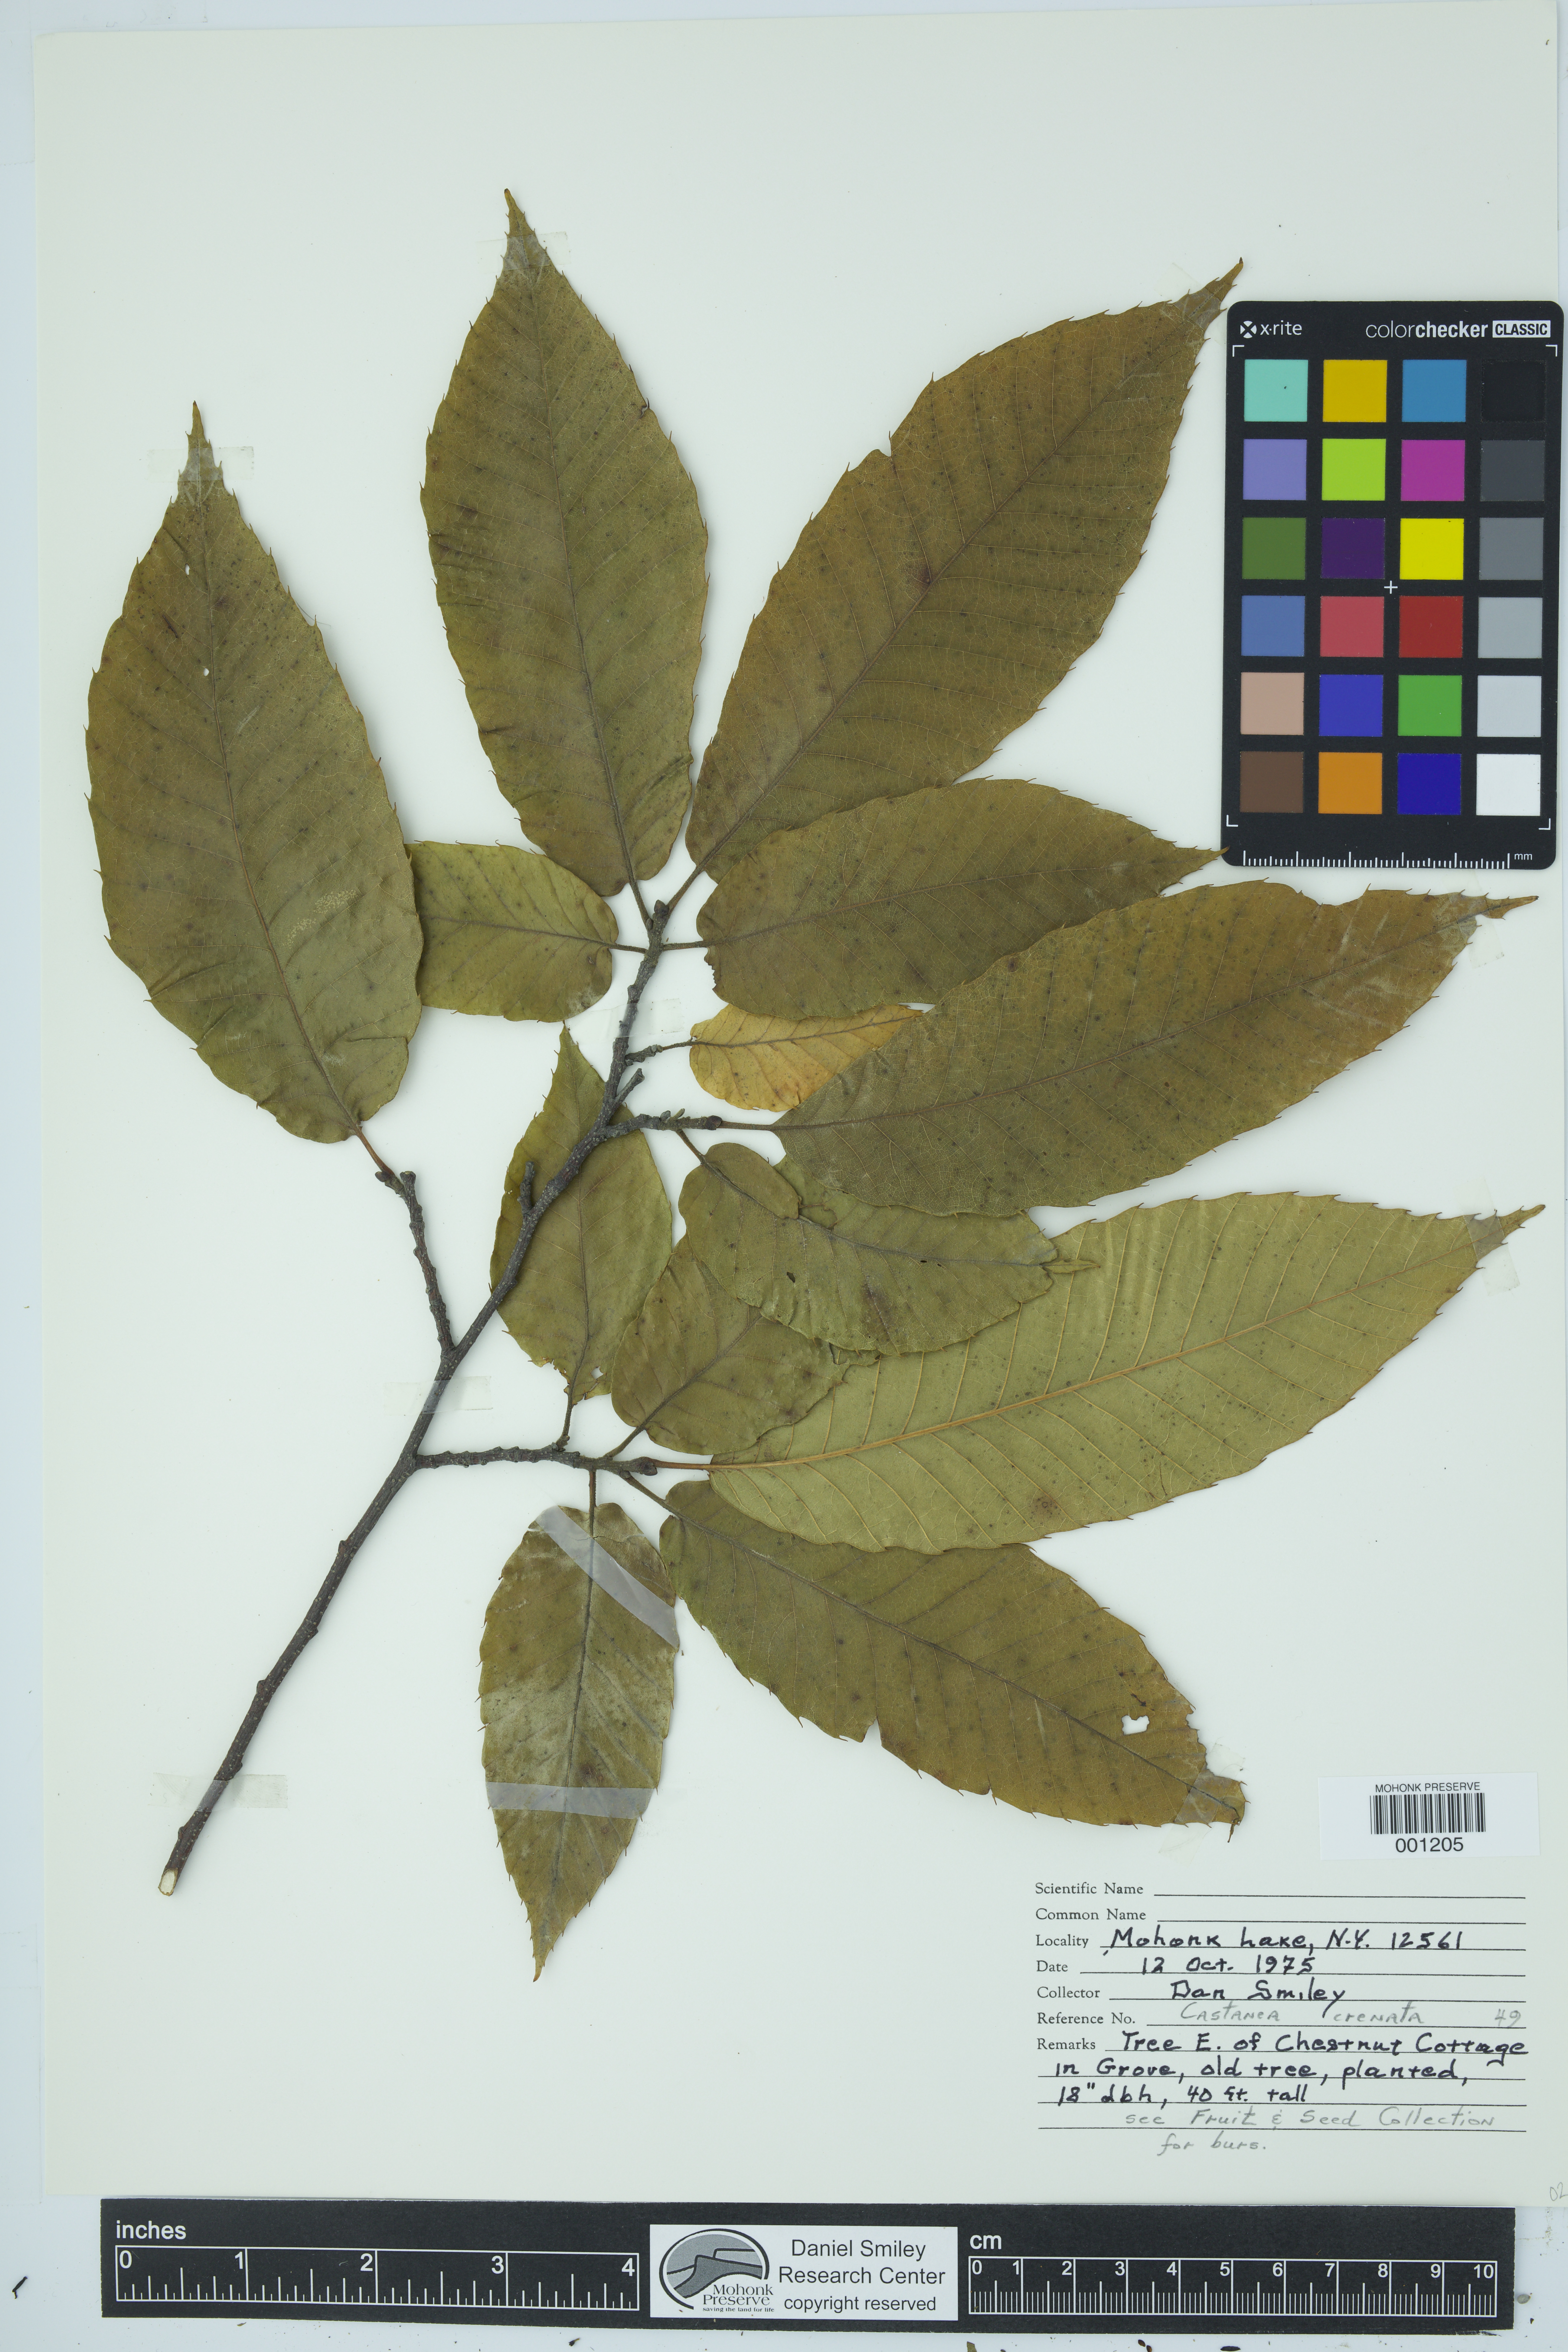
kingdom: Plantae
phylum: Tracheophyta
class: Magnoliopsida
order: Fagales
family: Fagaceae
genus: Castanea
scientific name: Castanea crenata
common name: Japanese chestnut
